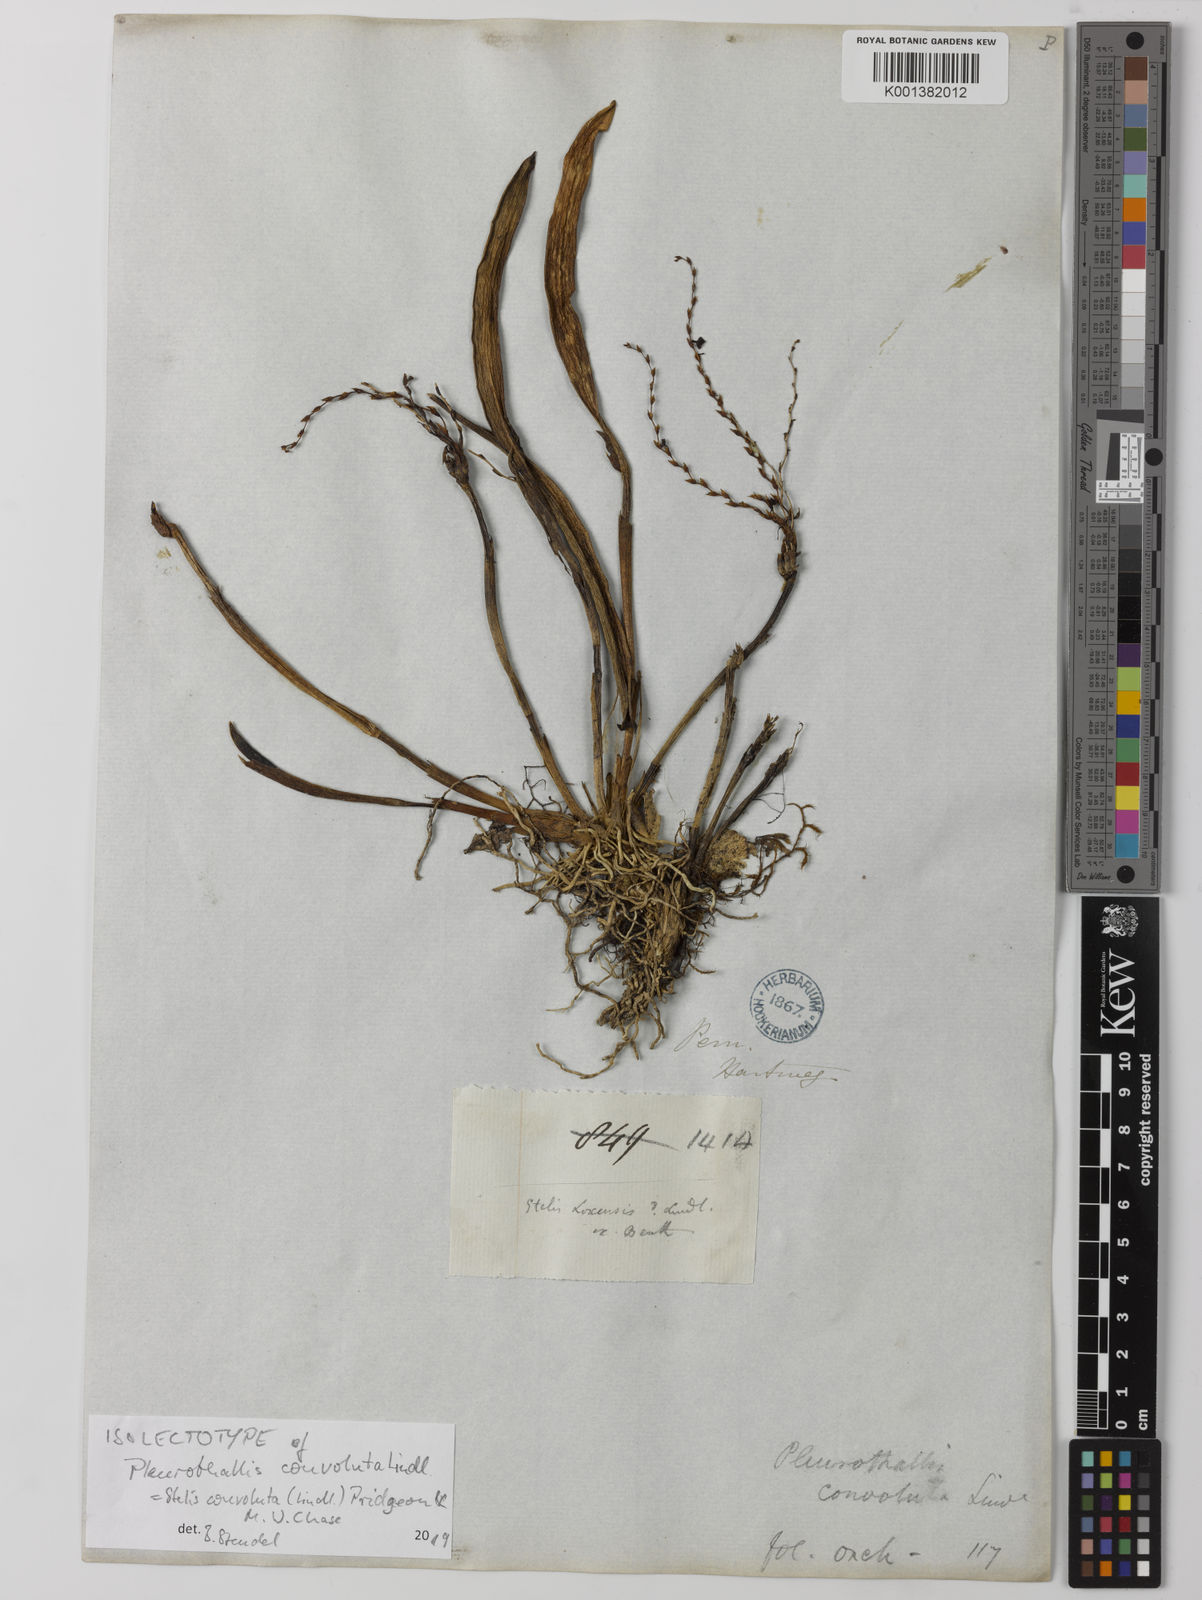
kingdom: Plantae
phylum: Tracheophyta
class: Liliopsida
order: Asparagales
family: Orchidaceae
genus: Stelis
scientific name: Stelis convoluta
